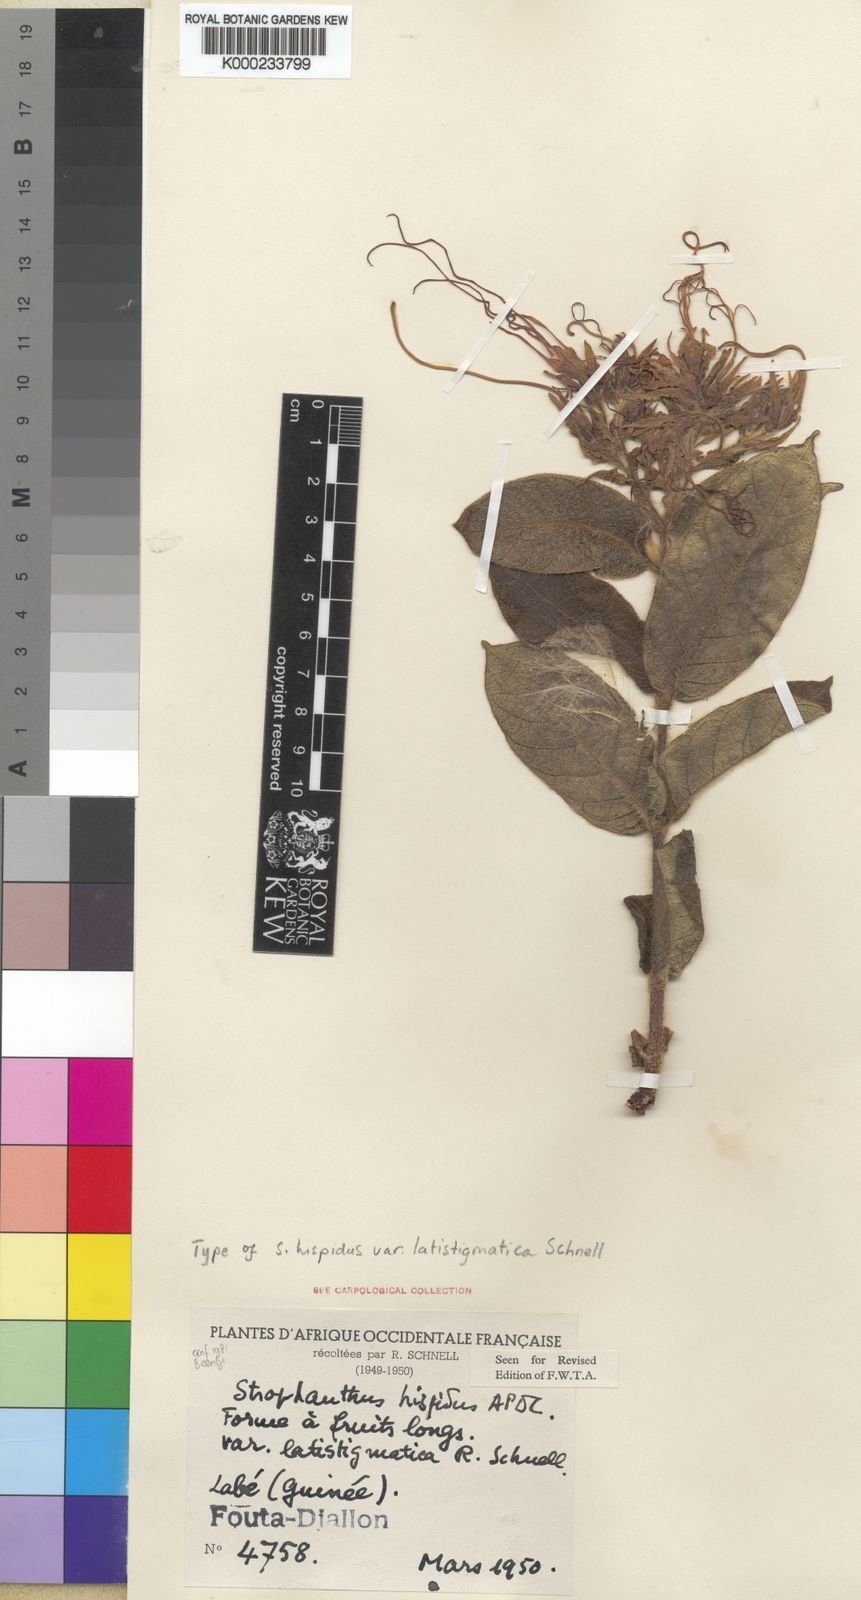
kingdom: Plantae
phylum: Tracheophyta
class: Magnoliopsida
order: Gentianales
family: Apocynaceae
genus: Strophanthus
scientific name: Strophanthus hispidus
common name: Hairy strophanthus
